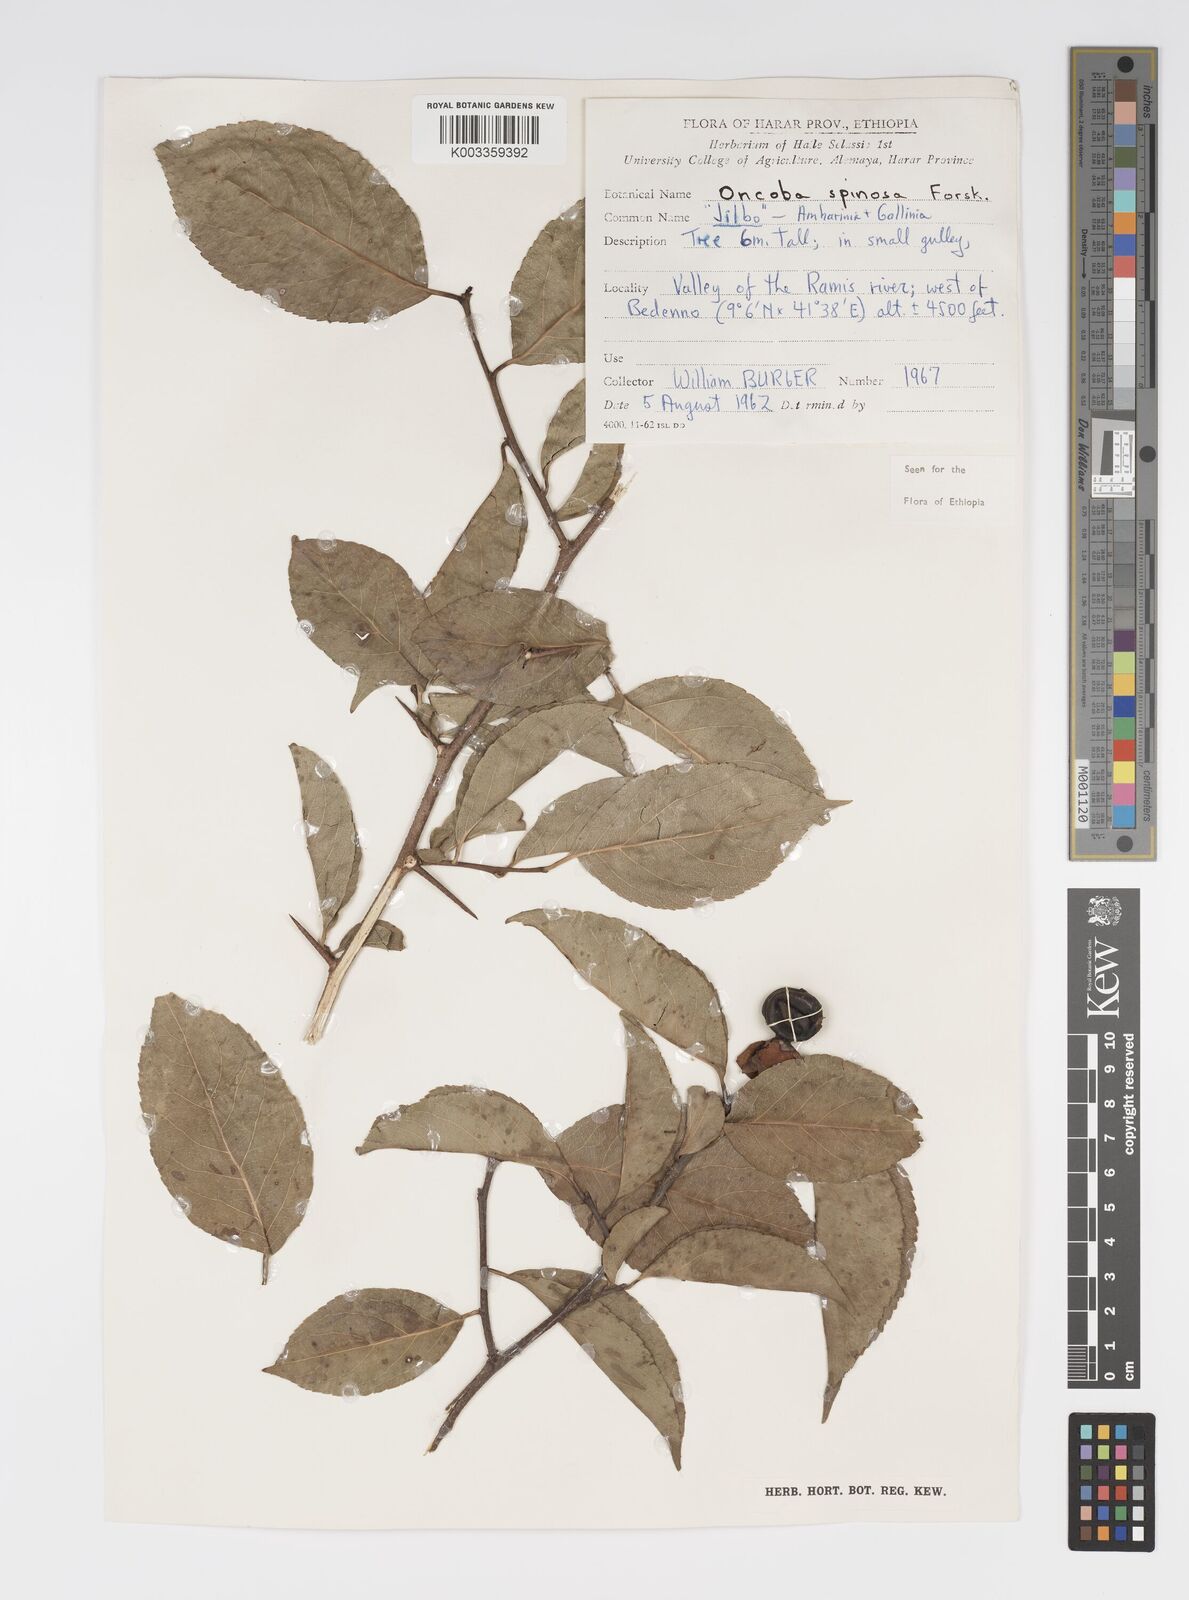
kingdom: Plantae
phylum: Tracheophyta
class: Magnoliopsida
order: Malpighiales
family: Salicaceae
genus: Oncoba
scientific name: Oncoba spinosa
